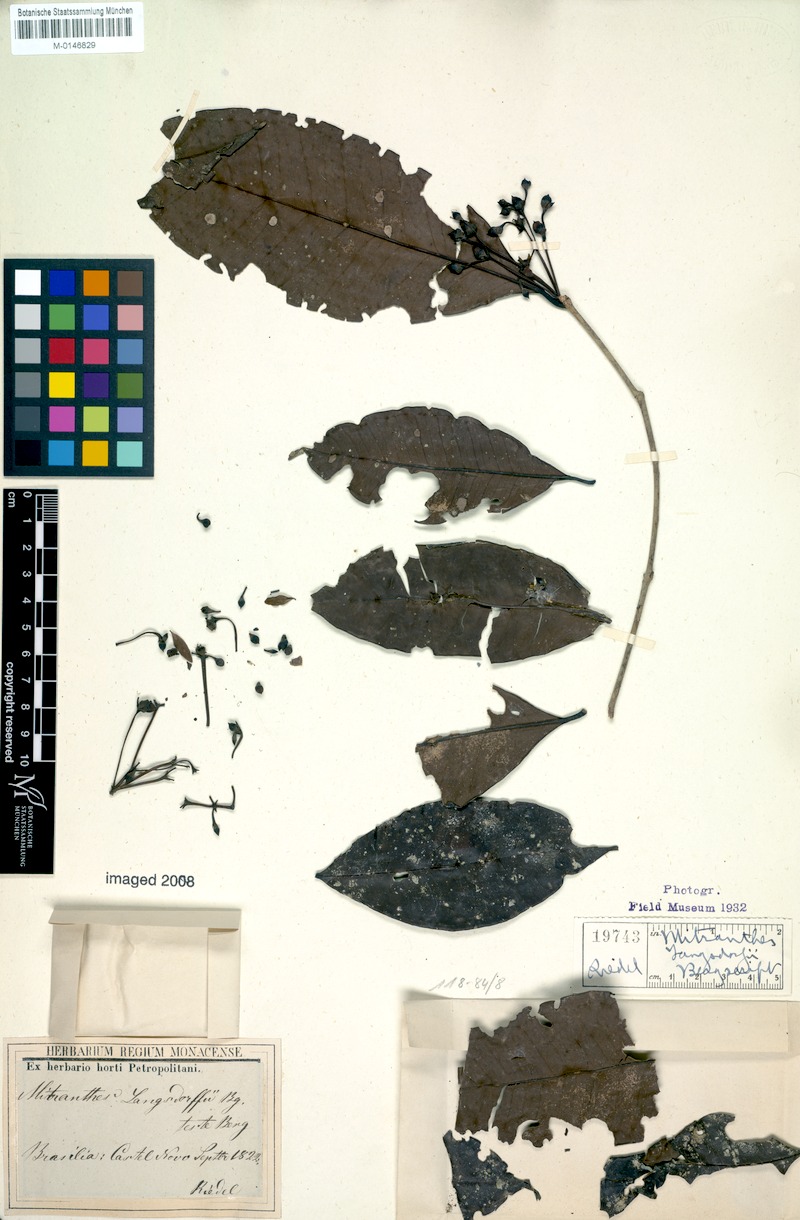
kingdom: Plantae
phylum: Tracheophyta
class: Magnoliopsida
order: Myrtales
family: Myrtaceae
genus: Neomitranthes
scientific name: Neomitranthes langsdorffii
